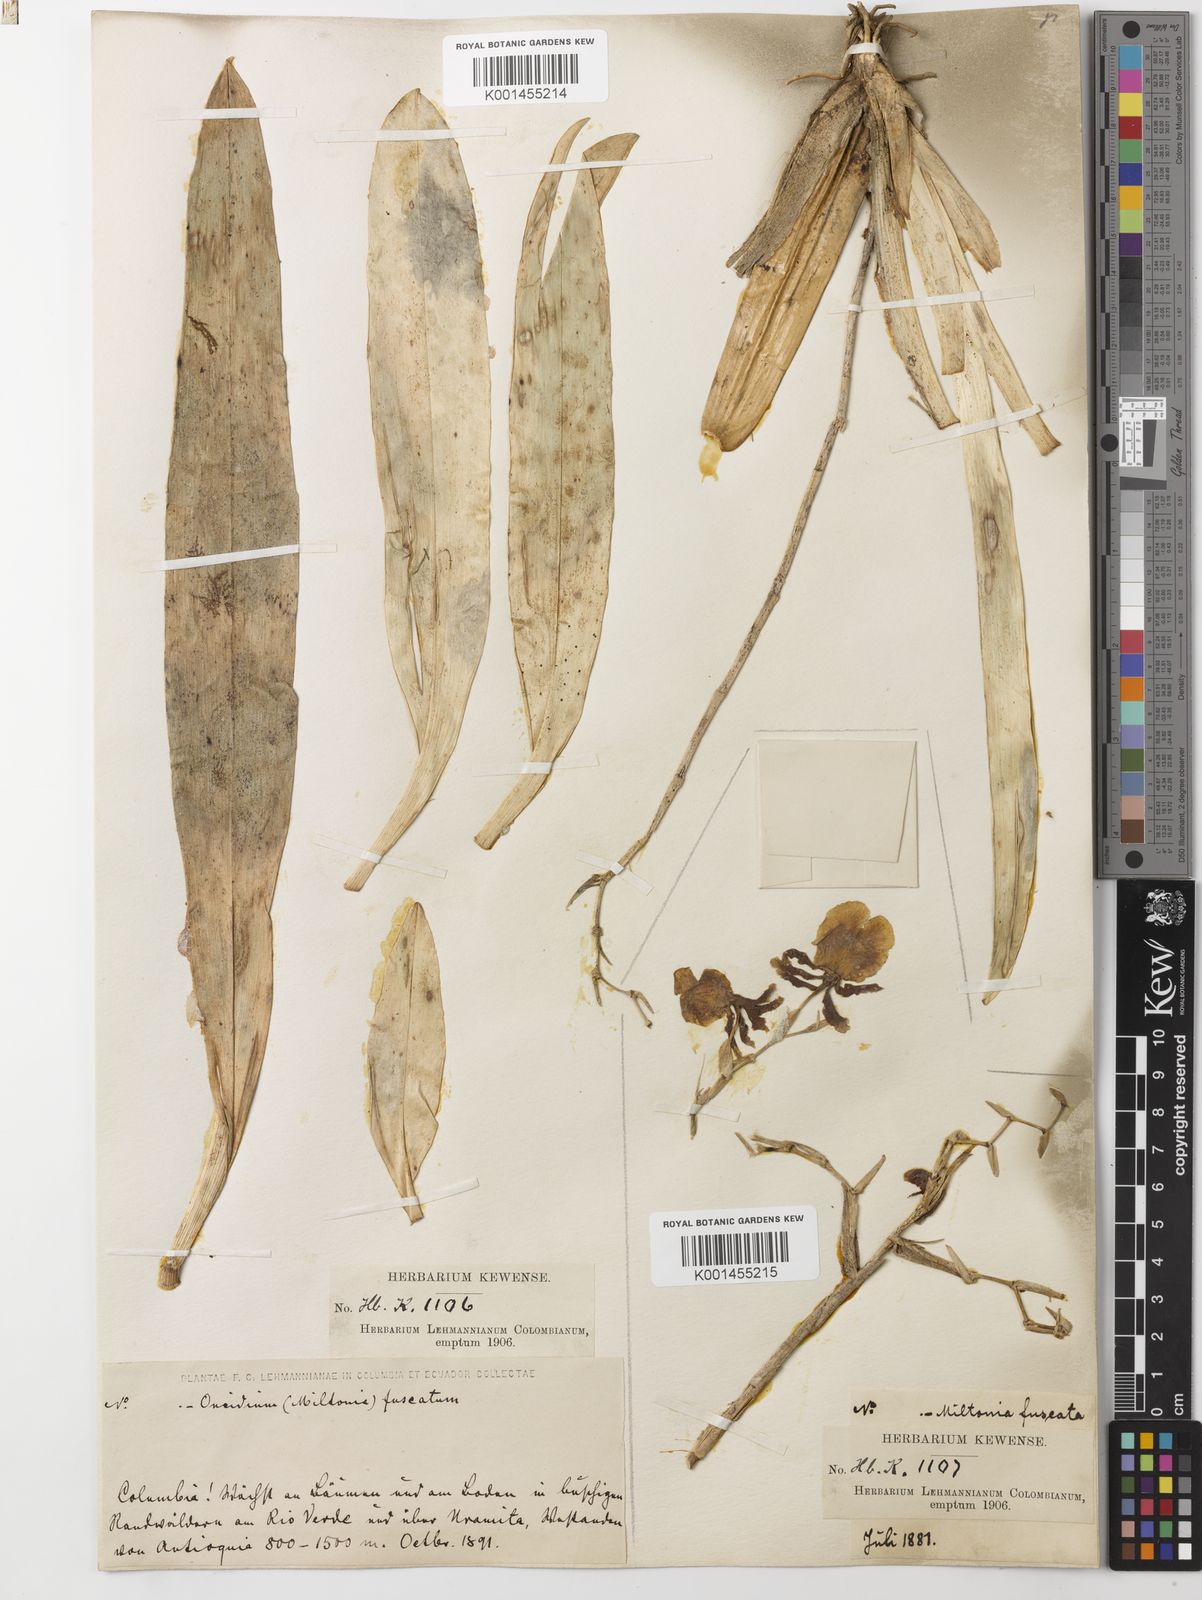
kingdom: Plantae
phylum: Tracheophyta
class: Liliopsida
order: Asparagales
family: Orchidaceae
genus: Oncidium
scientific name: Oncidium fuscatum
